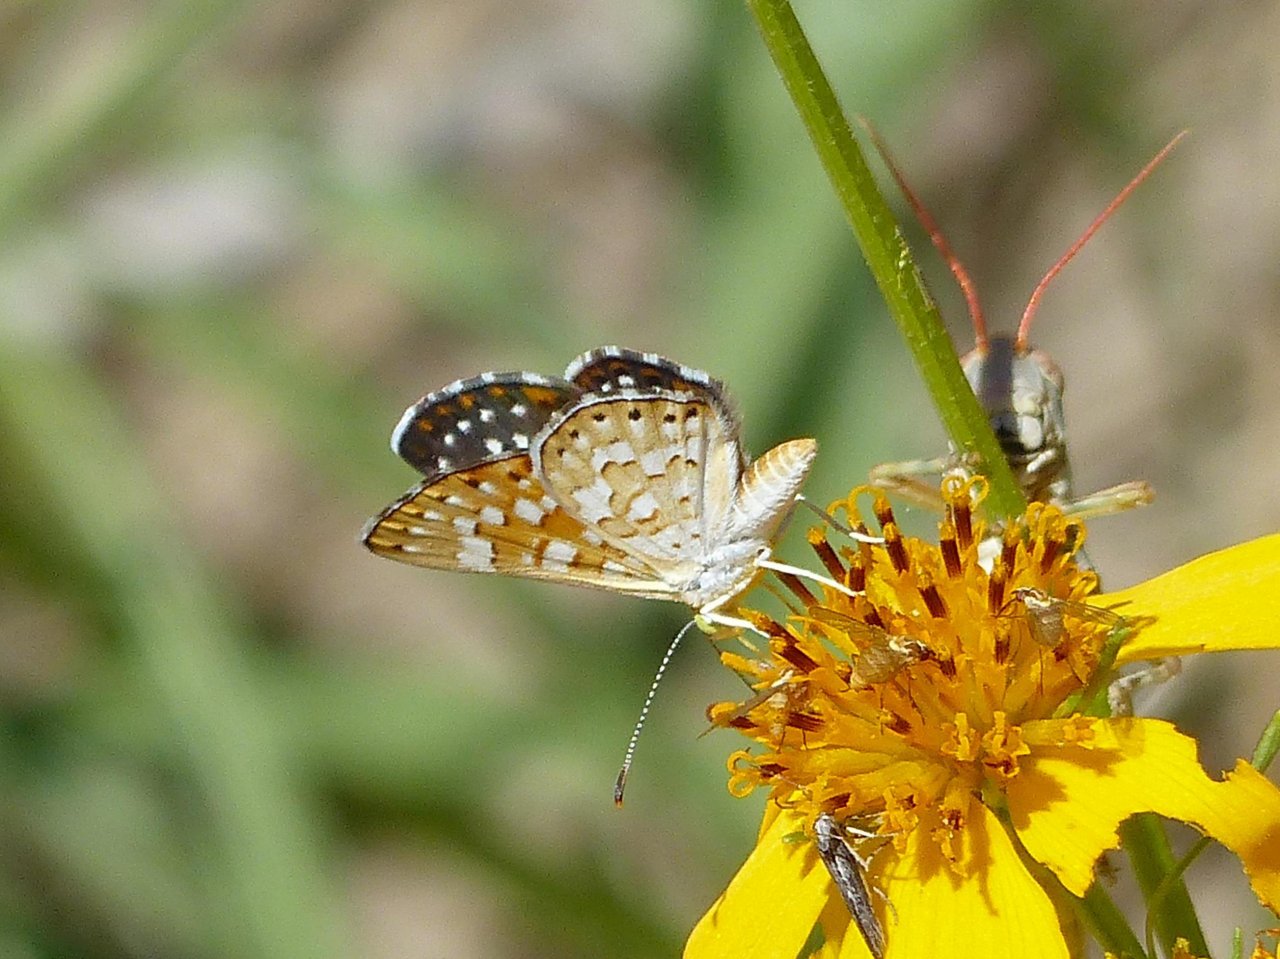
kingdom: Animalia
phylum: Arthropoda
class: Insecta
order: Lepidoptera
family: Riodinidae
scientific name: Riodinidae
